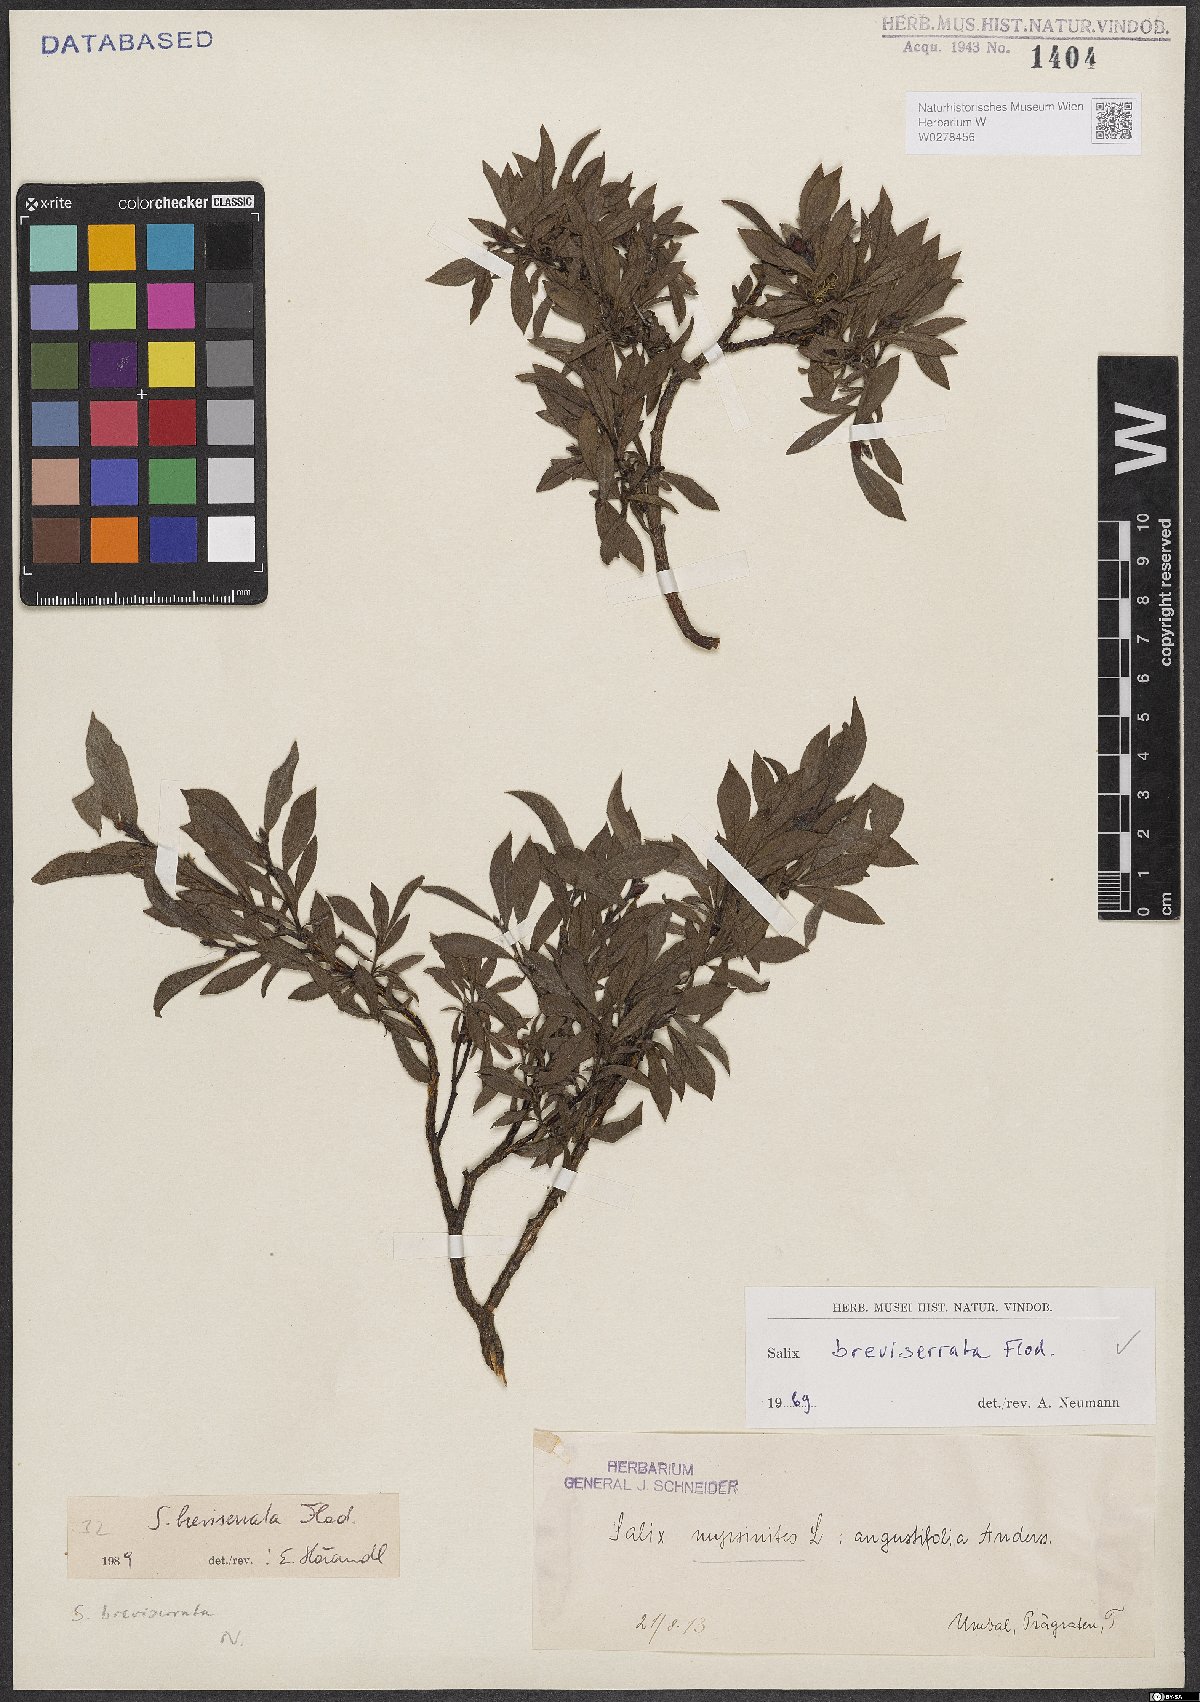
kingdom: Plantae
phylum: Tracheophyta
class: Magnoliopsida
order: Malpighiales
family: Salicaceae
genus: Salix
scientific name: Salix breviserrata
